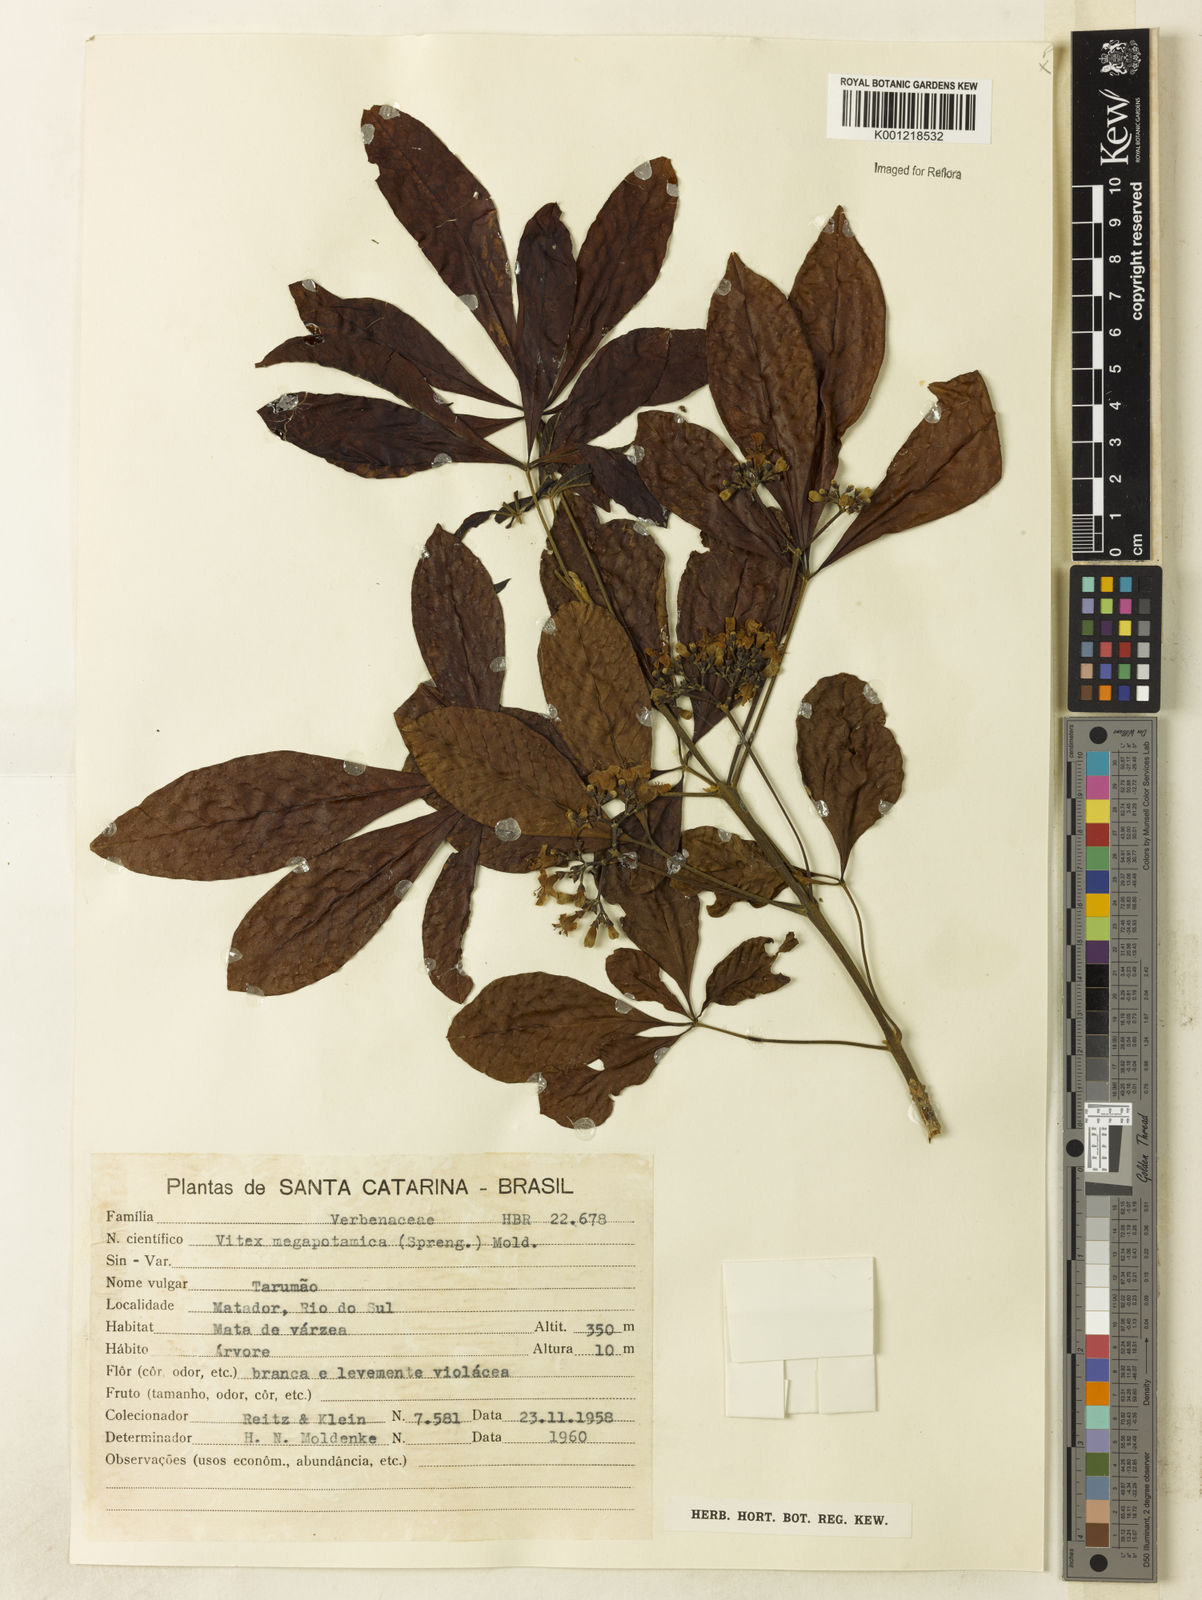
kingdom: Plantae
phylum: Tracheophyta
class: Magnoliopsida
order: Lamiales
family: Lamiaceae
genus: Vitex
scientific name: Vitex megapotamica
